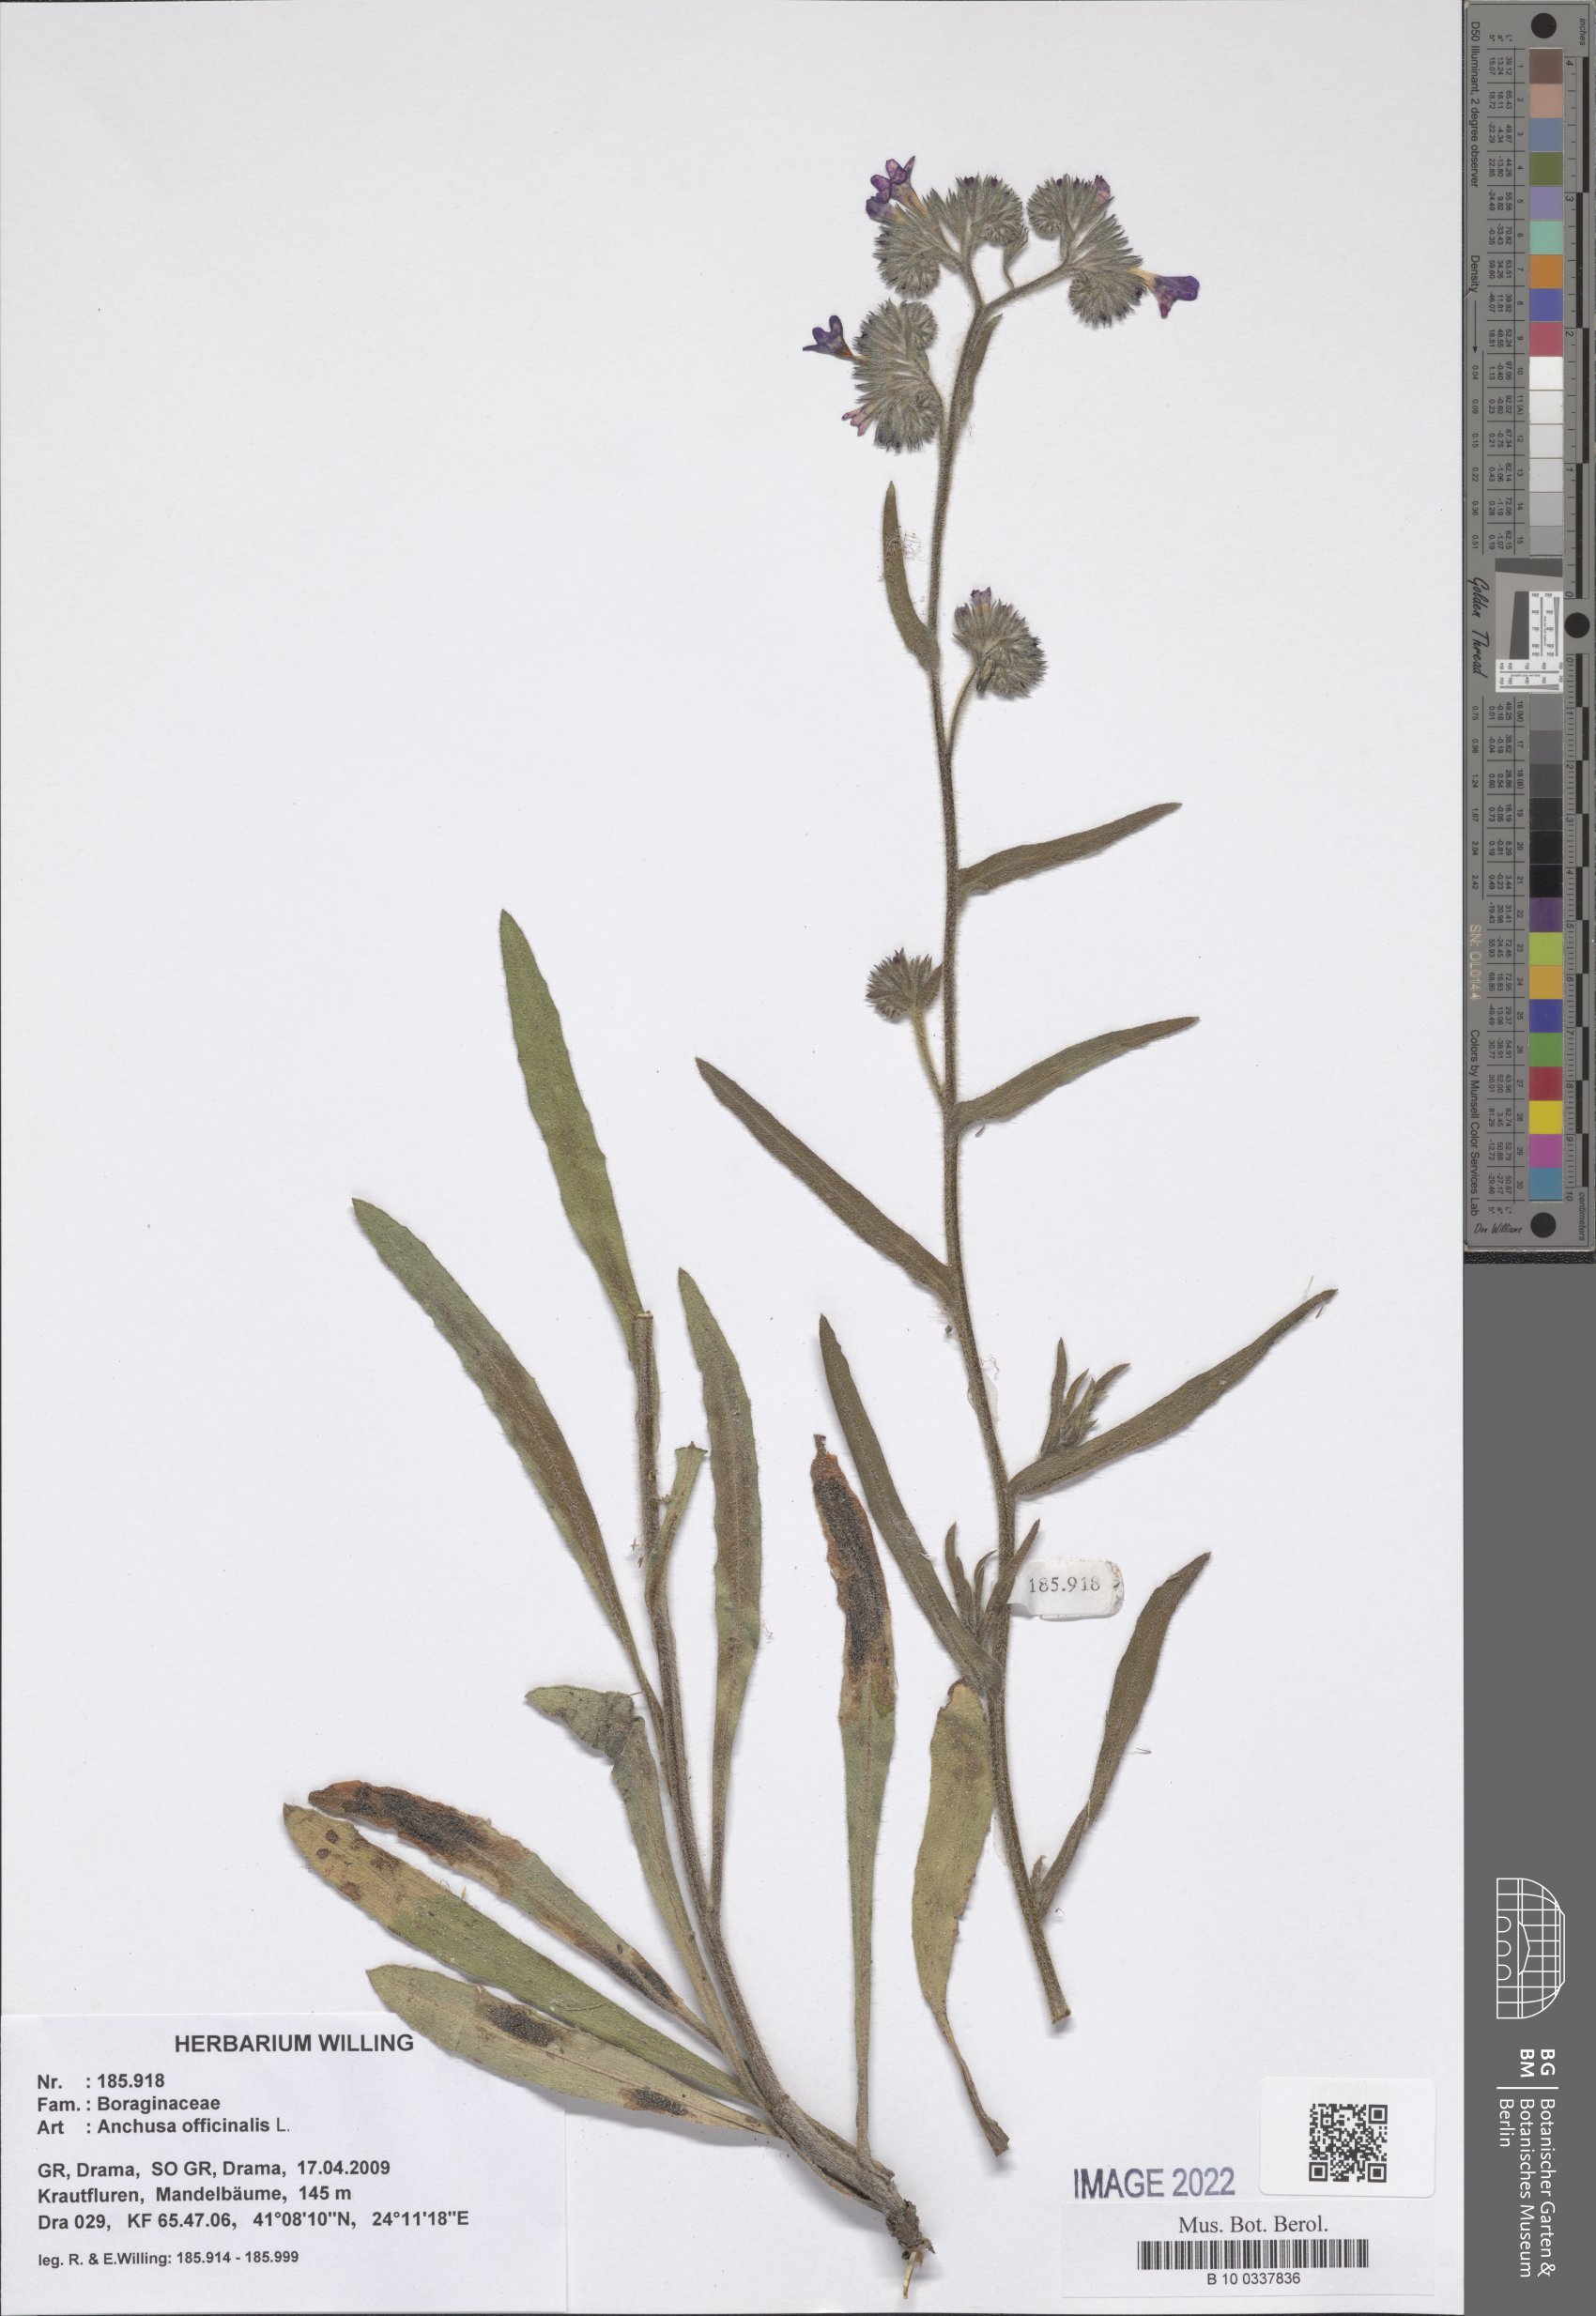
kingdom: Plantae
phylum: Tracheophyta
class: Magnoliopsida
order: Boraginales
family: Boraginaceae
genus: Anchusa
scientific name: Anchusa officinalis
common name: Alkanet
